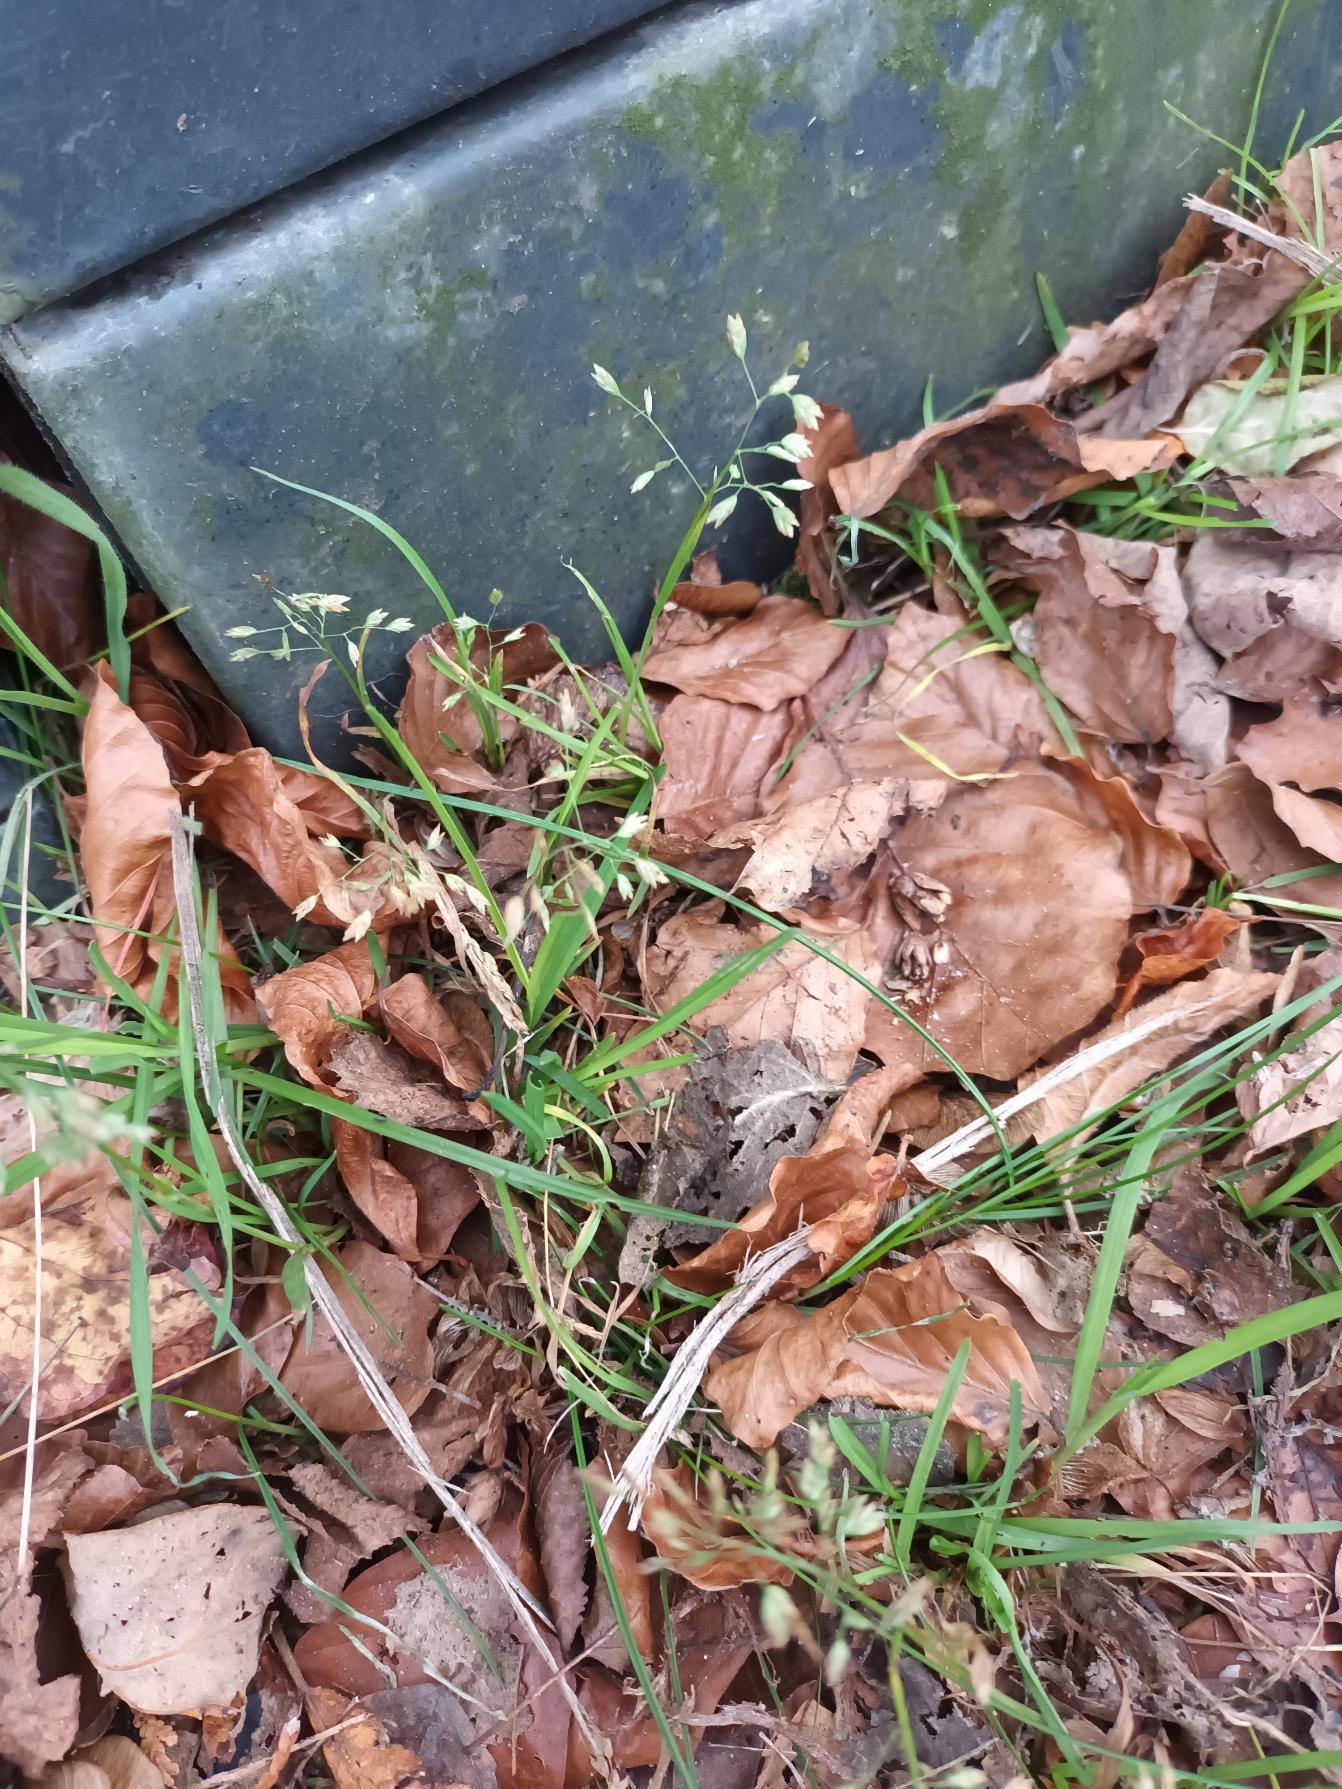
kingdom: Plantae
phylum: Tracheophyta
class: Liliopsida
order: Poales
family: Poaceae
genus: Poa
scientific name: Poa annua
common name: Enårig rapgræs
